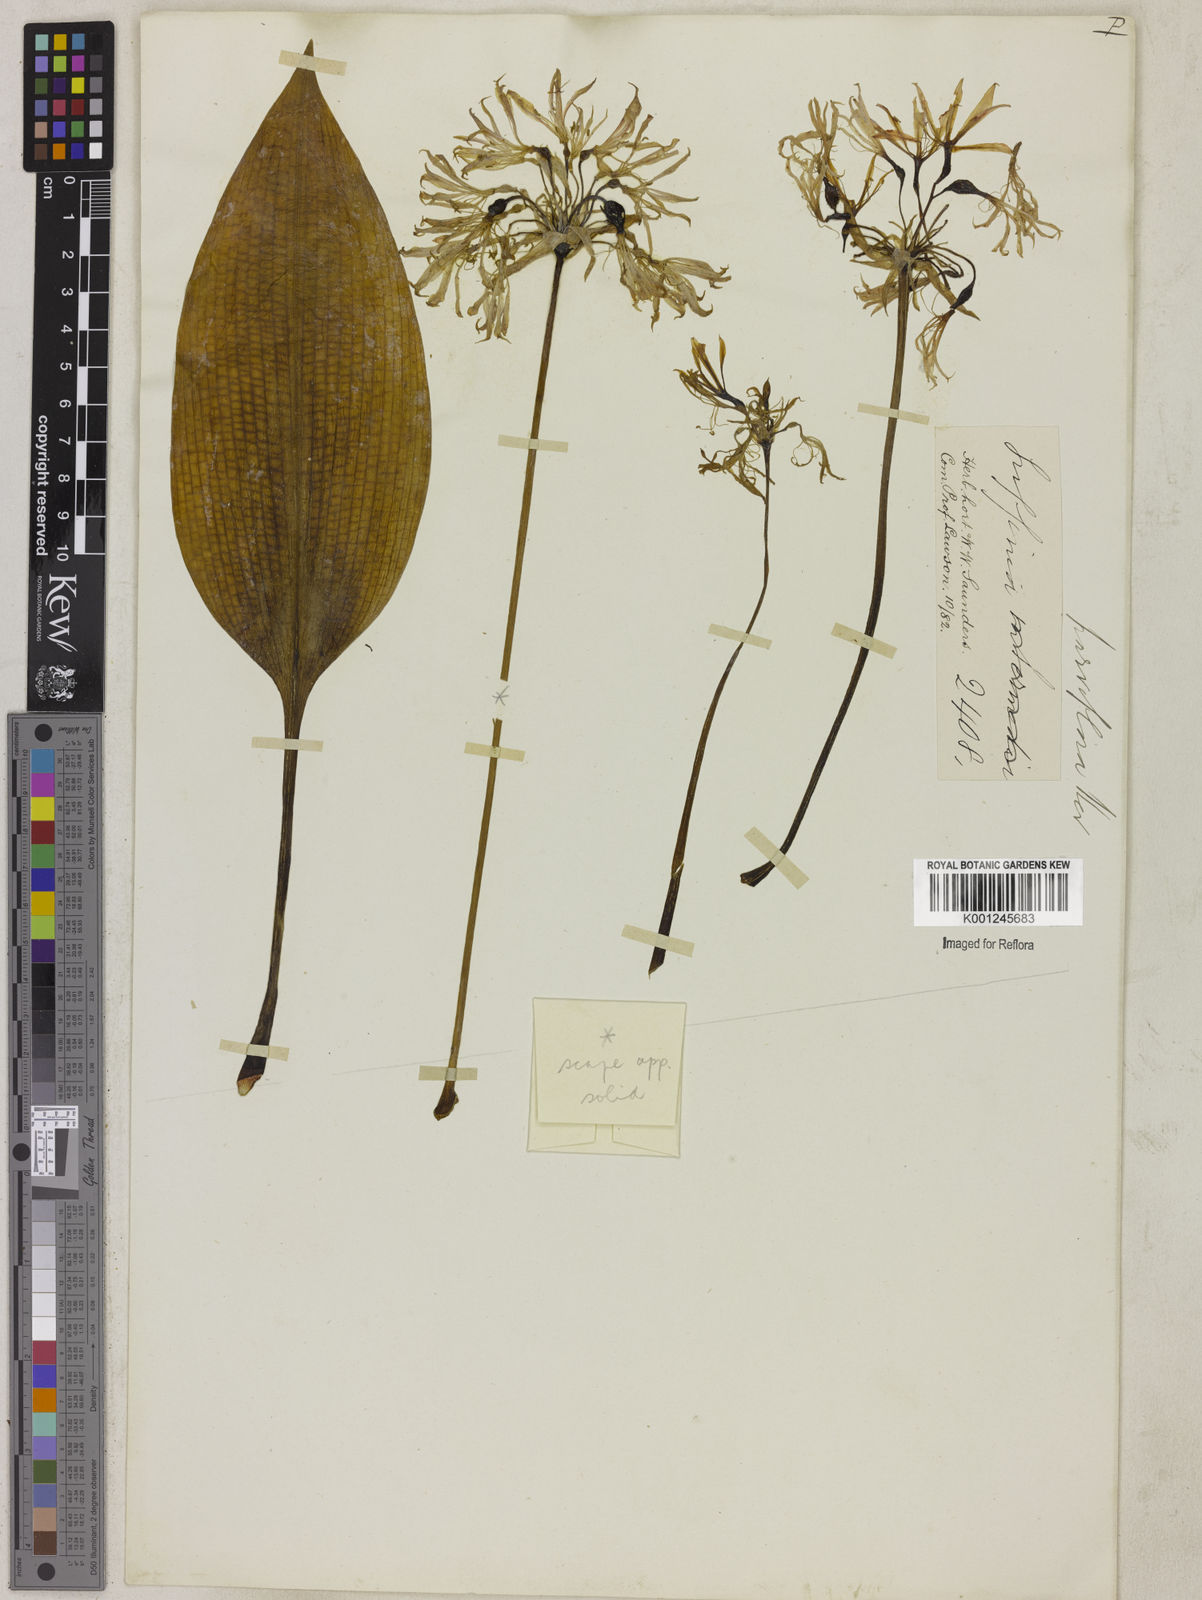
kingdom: Plantae
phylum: Tracheophyta
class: Liliopsida
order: Asparagales
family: Amaryllidaceae
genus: Griffinia
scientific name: Griffinia parviflora
